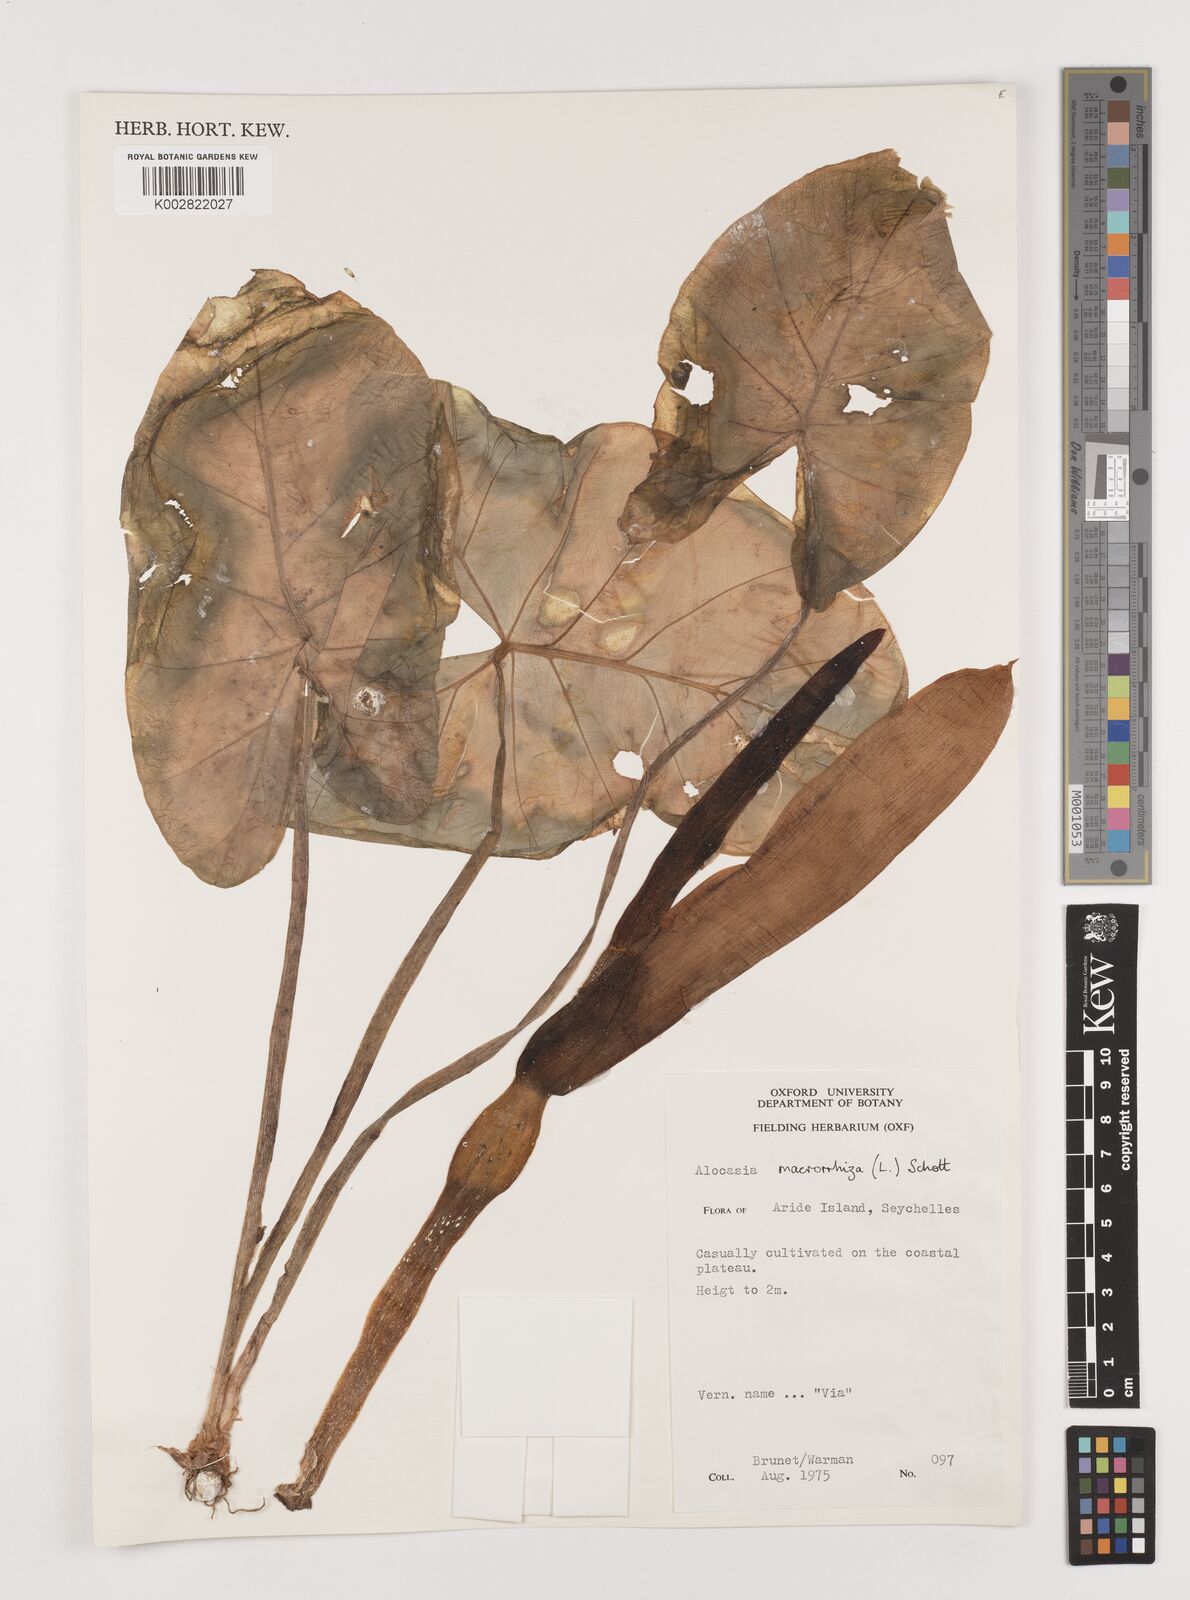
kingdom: Plantae
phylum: Tracheophyta
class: Liliopsida
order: Alismatales
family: Araceae
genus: Alocasia
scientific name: Alocasia macrorrhizos
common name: Giant taro
